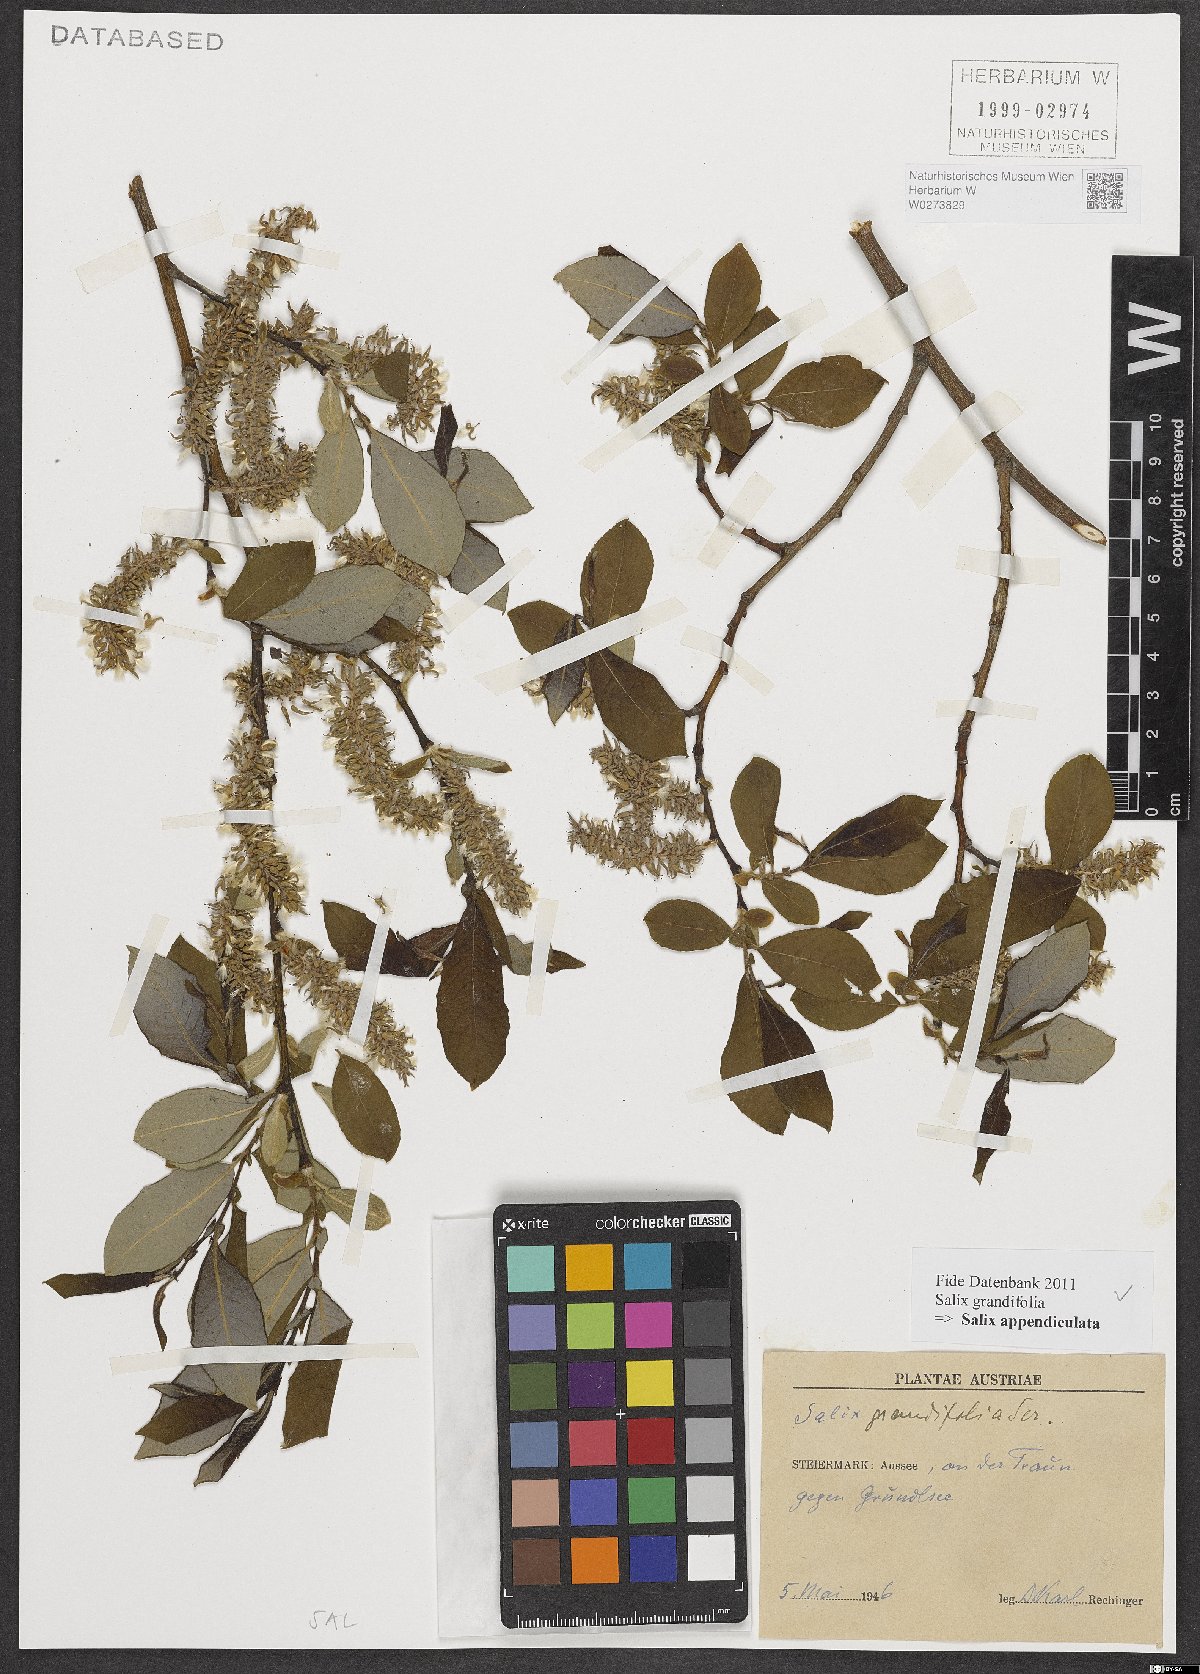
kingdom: Plantae
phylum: Tracheophyta
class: Magnoliopsida
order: Malpighiales
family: Salicaceae
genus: Salix
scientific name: Salix appendiculata
